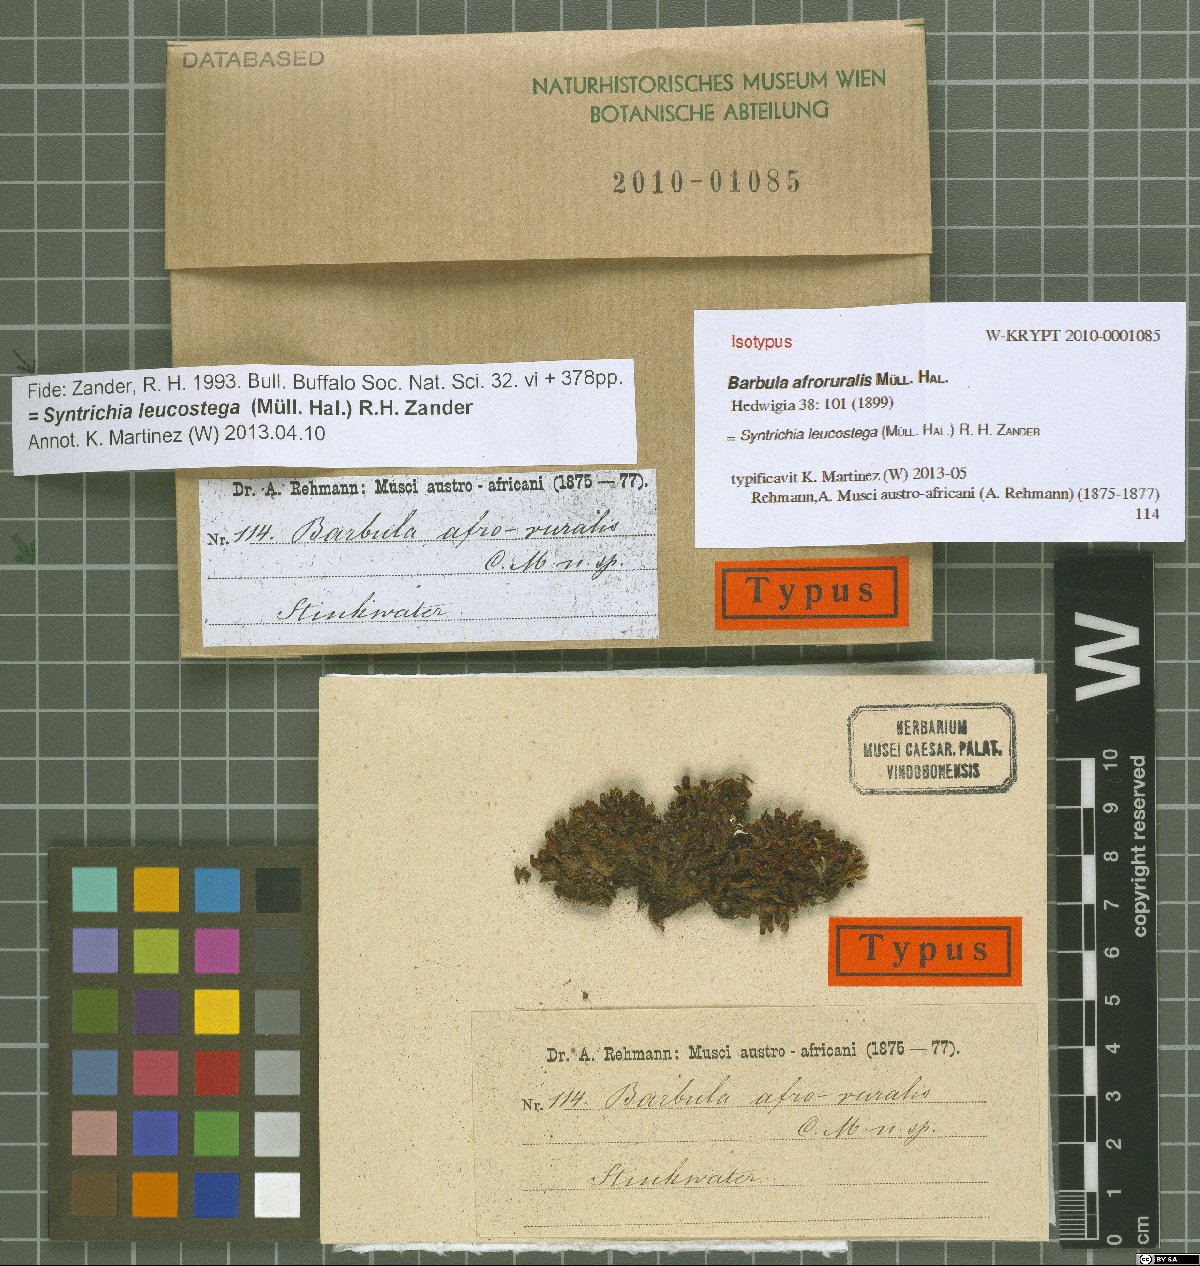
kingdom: Plantae
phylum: Bryophyta
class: Bryopsida
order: Pottiales
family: Pottiaceae
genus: Syntrichia
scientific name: Syntrichia leucostega
